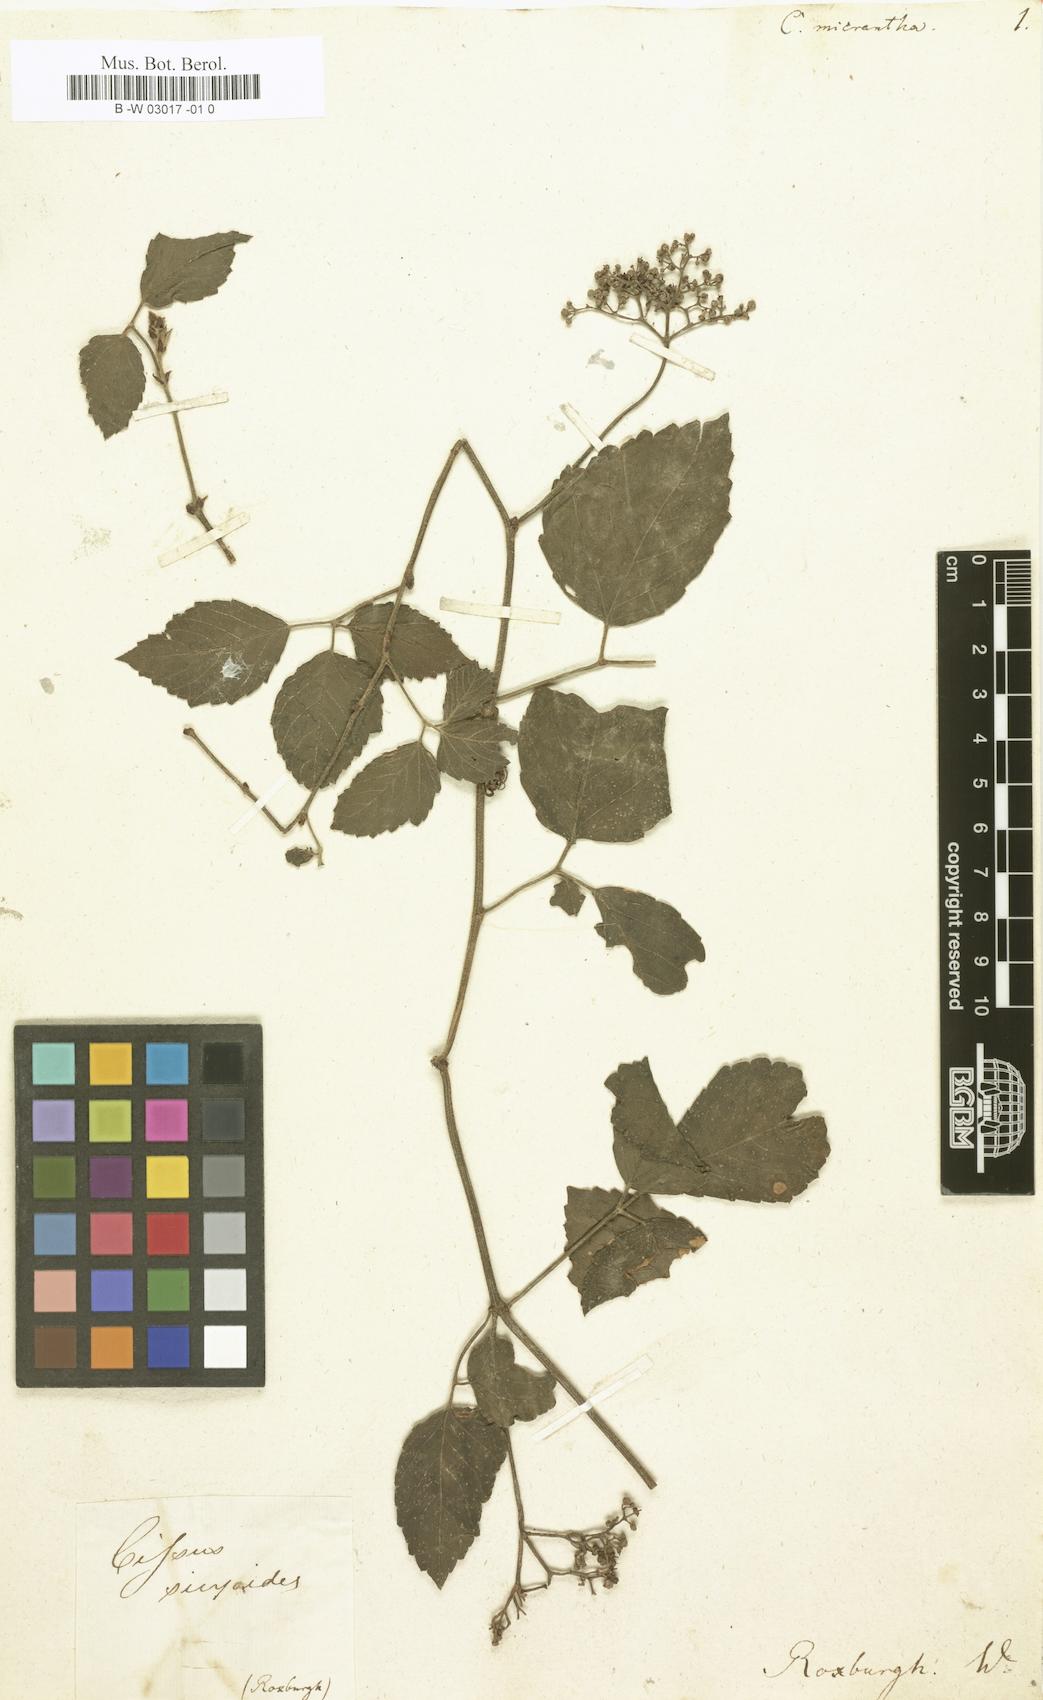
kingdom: Plantae
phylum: Tracheophyta
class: Magnoliopsida
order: Vitales
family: Vitaceae
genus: Cissus
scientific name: Cissus verticillata
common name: Princess vine
